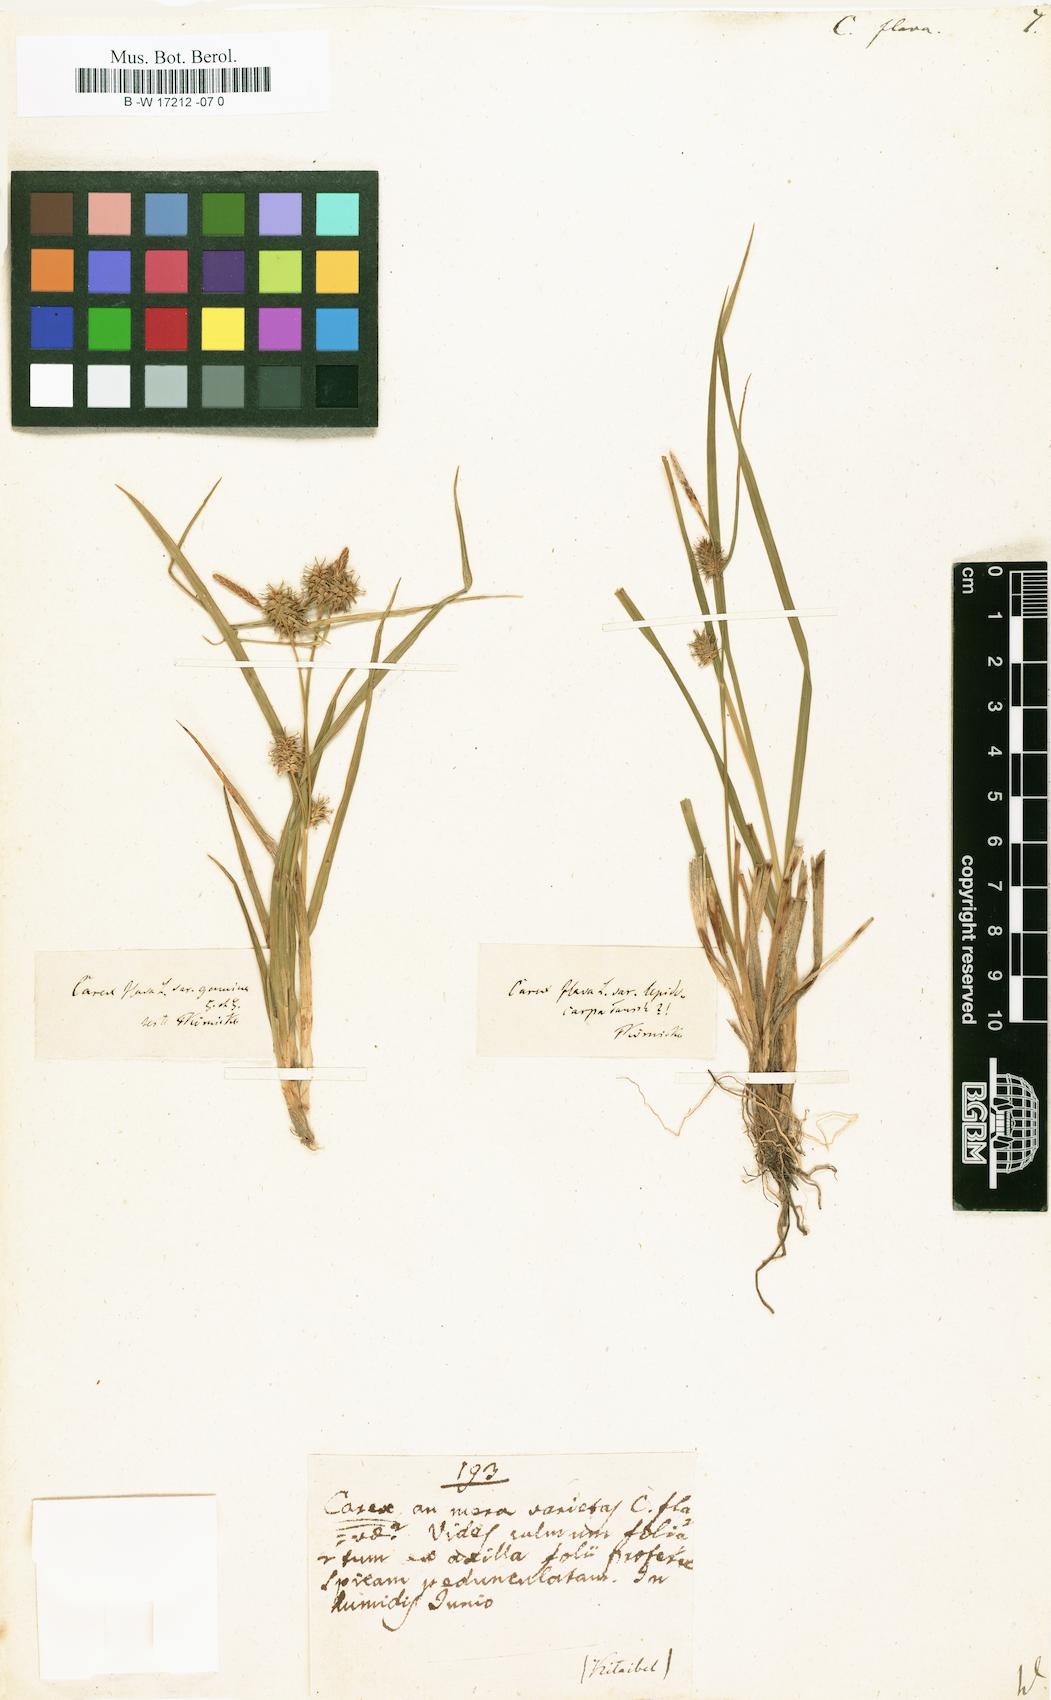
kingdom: Plantae
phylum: Tracheophyta
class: Liliopsida
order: Poales
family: Cyperaceae
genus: Carex
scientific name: Carex flava
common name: Large yellow-sedge
